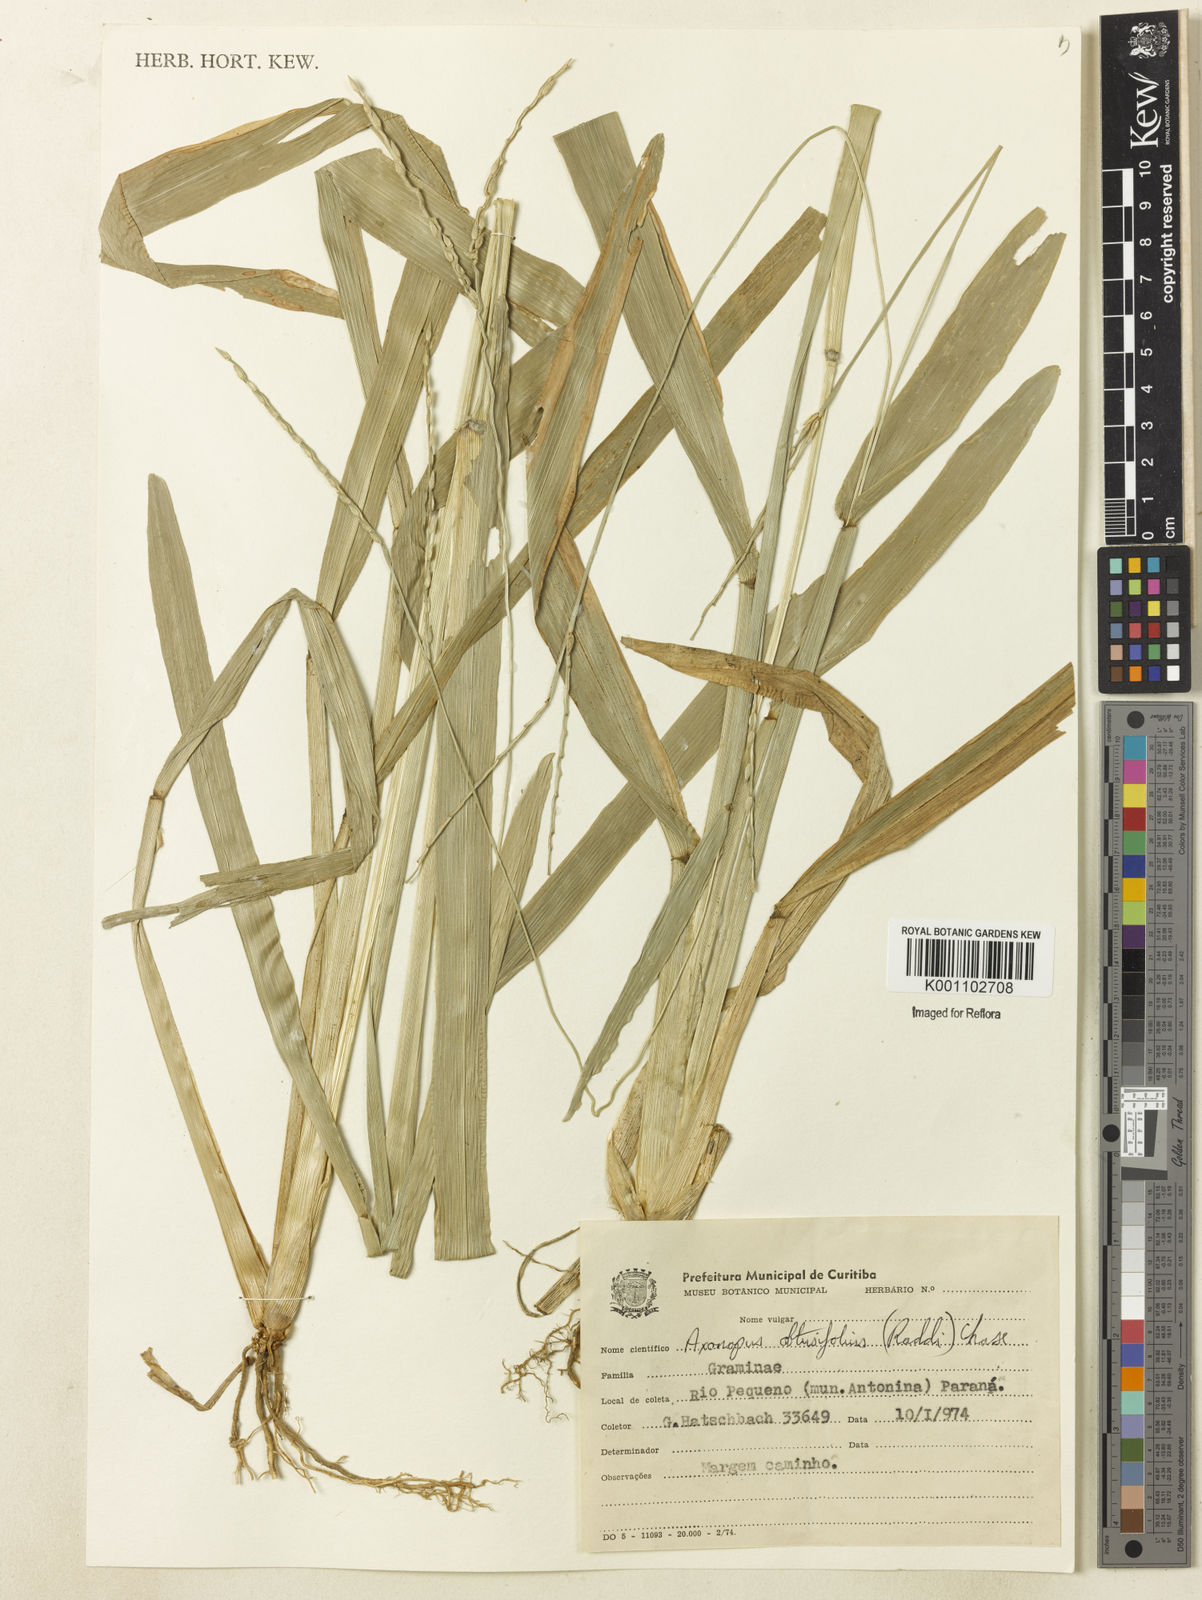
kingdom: Plantae
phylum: Tracheophyta
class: Liliopsida
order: Poales
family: Poaceae
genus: Axonopus
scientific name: Axonopus furcatus
